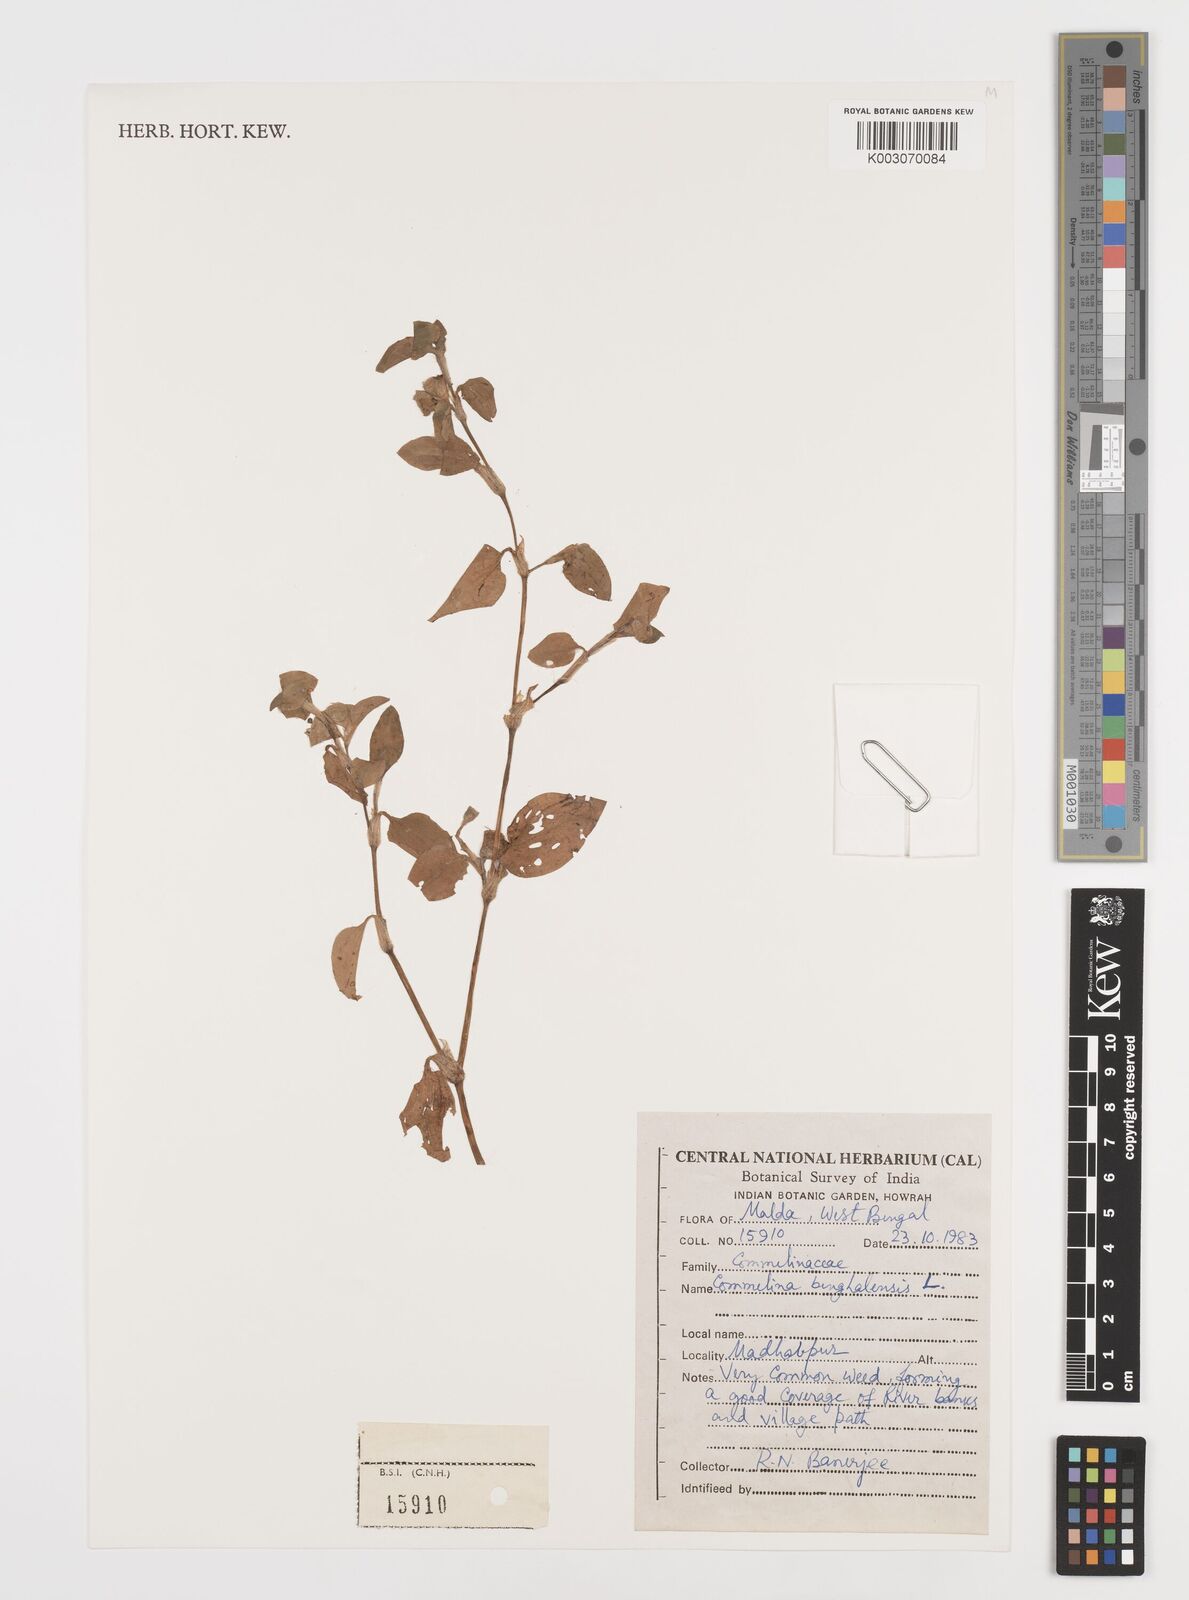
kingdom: Plantae
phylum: Tracheophyta
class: Liliopsida
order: Commelinales
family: Commelinaceae
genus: Commelina
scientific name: Commelina benghalensis
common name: Jio
